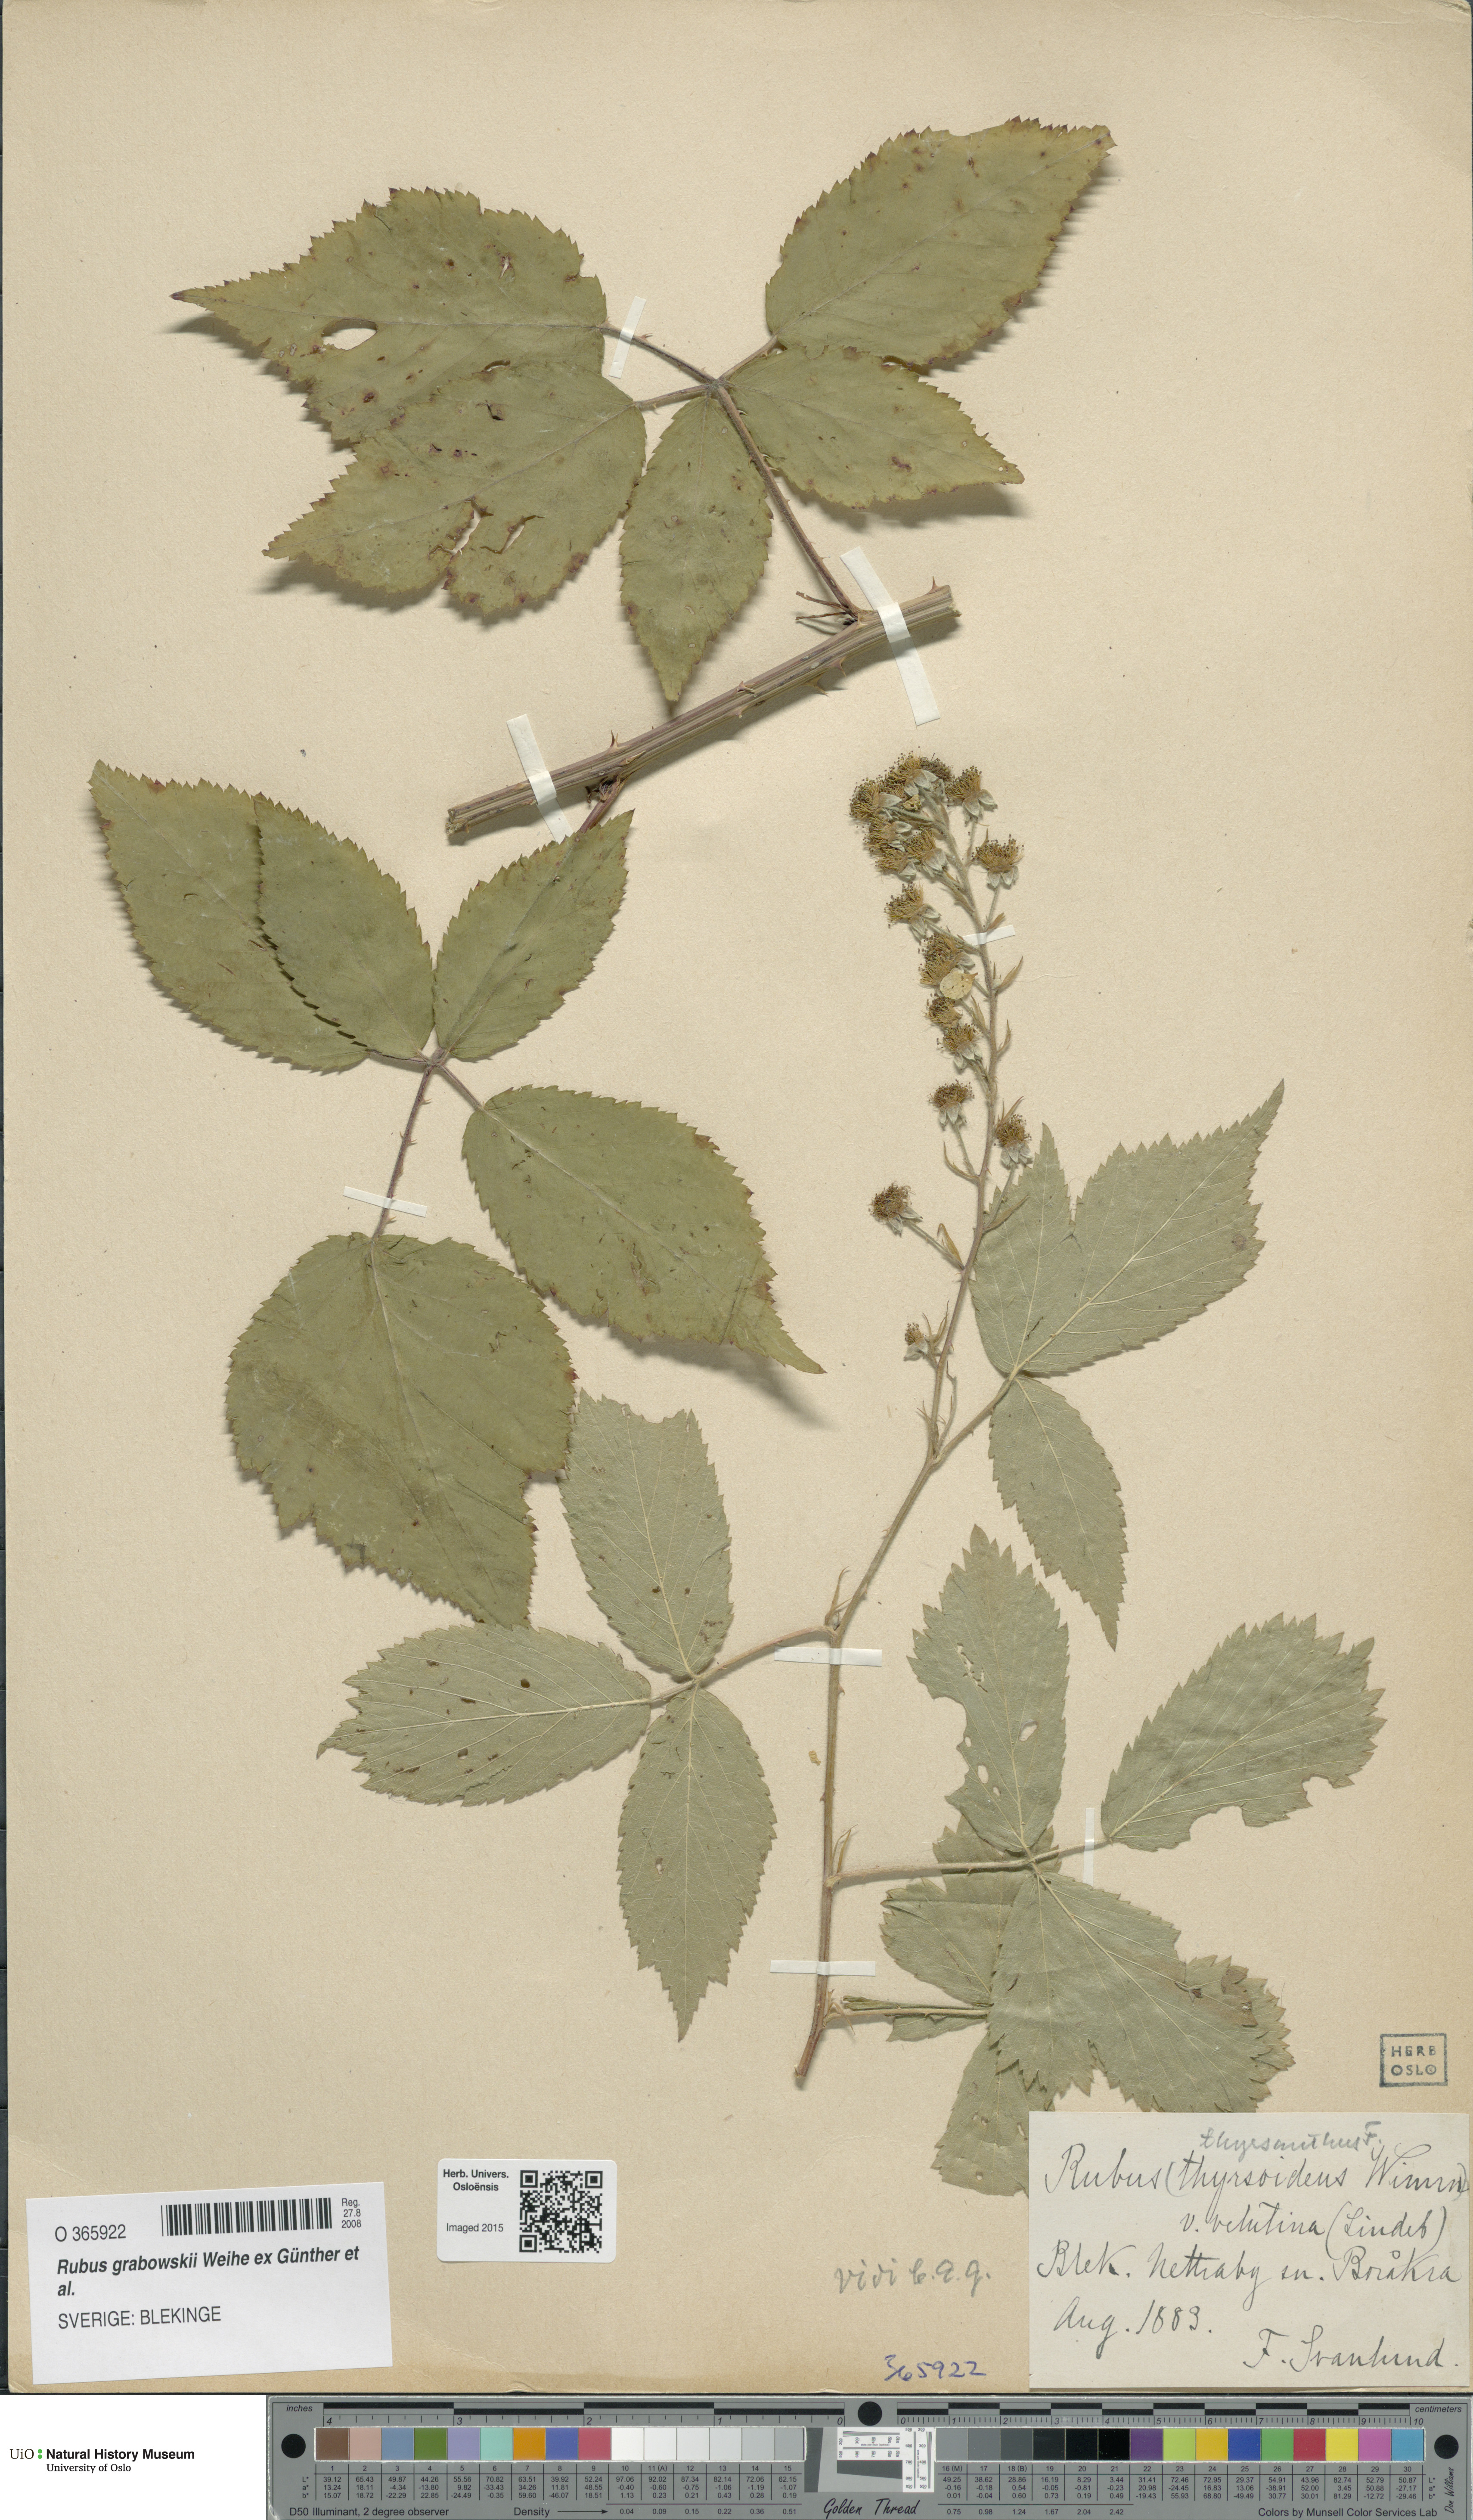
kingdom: Plantae
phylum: Tracheophyta
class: Magnoliopsida
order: Rosales
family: Rosaceae
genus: Rubus
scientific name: Rubus grabowskii
